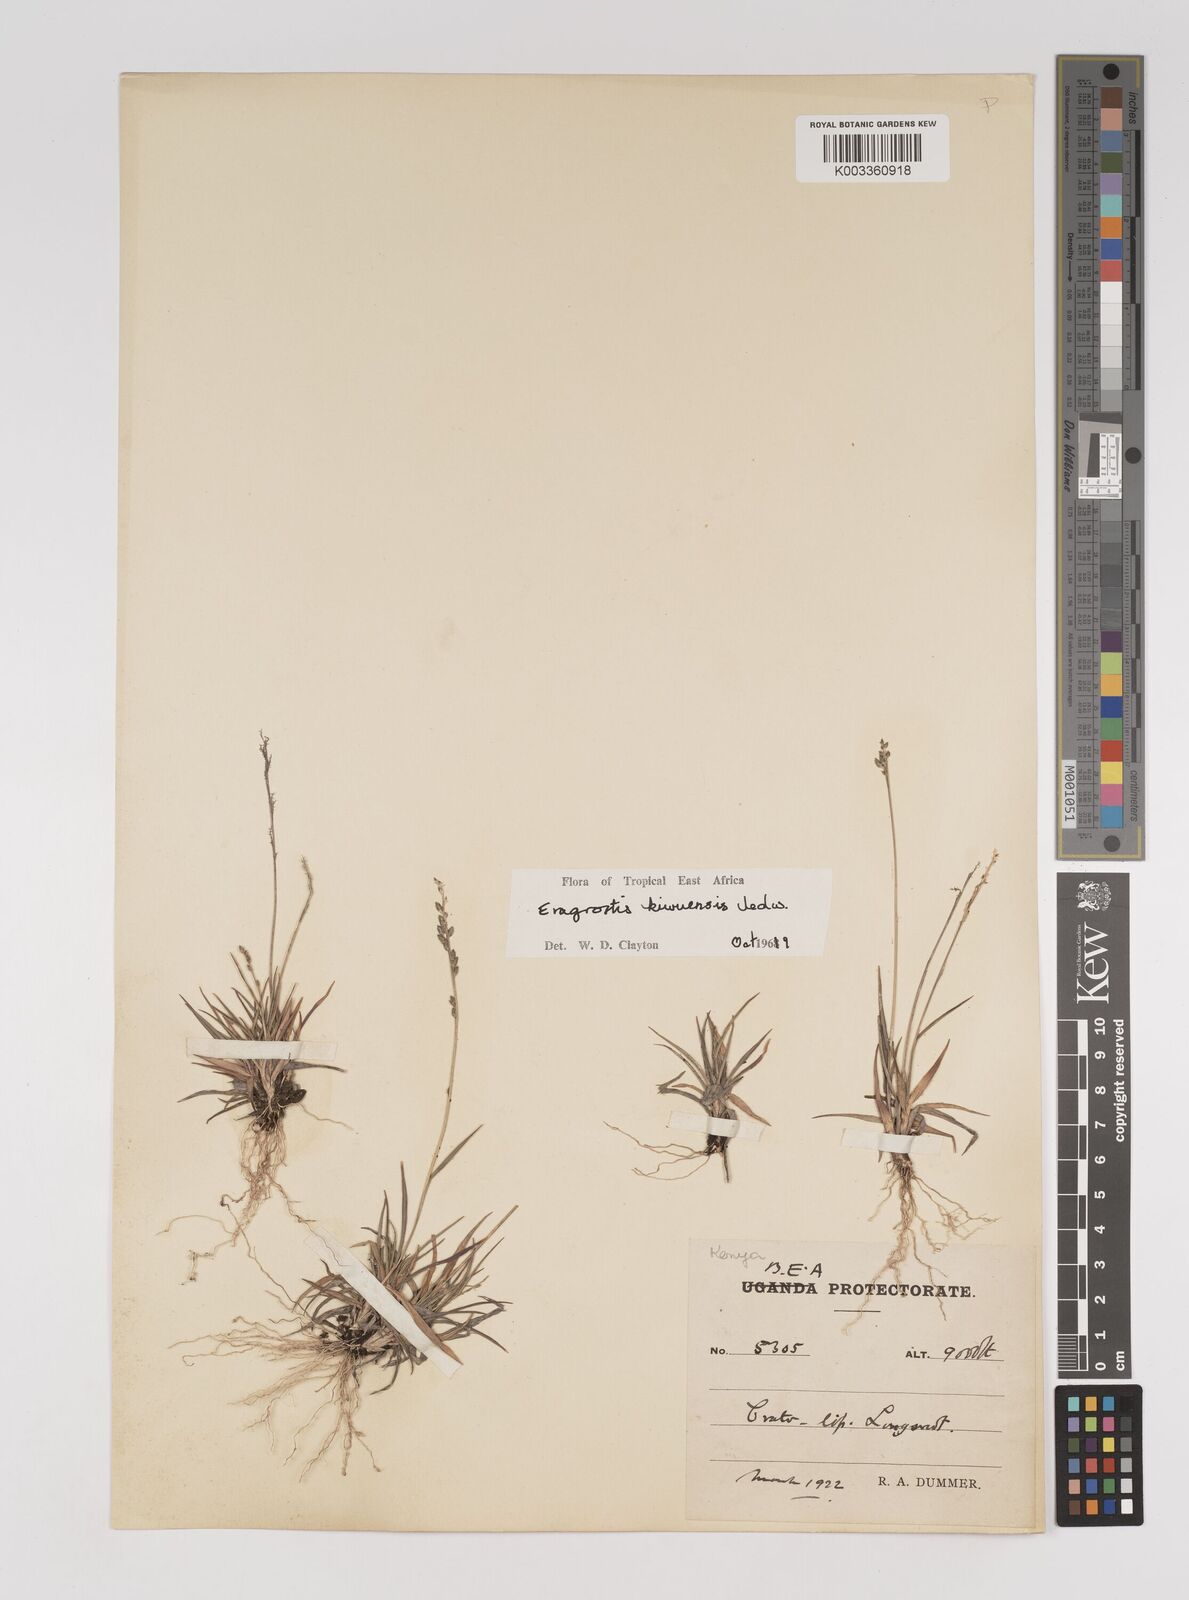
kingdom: Plantae
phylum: Tracheophyta
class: Liliopsida
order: Poales
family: Poaceae
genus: Eragrostis
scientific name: Eragrostis schweinfurthii
